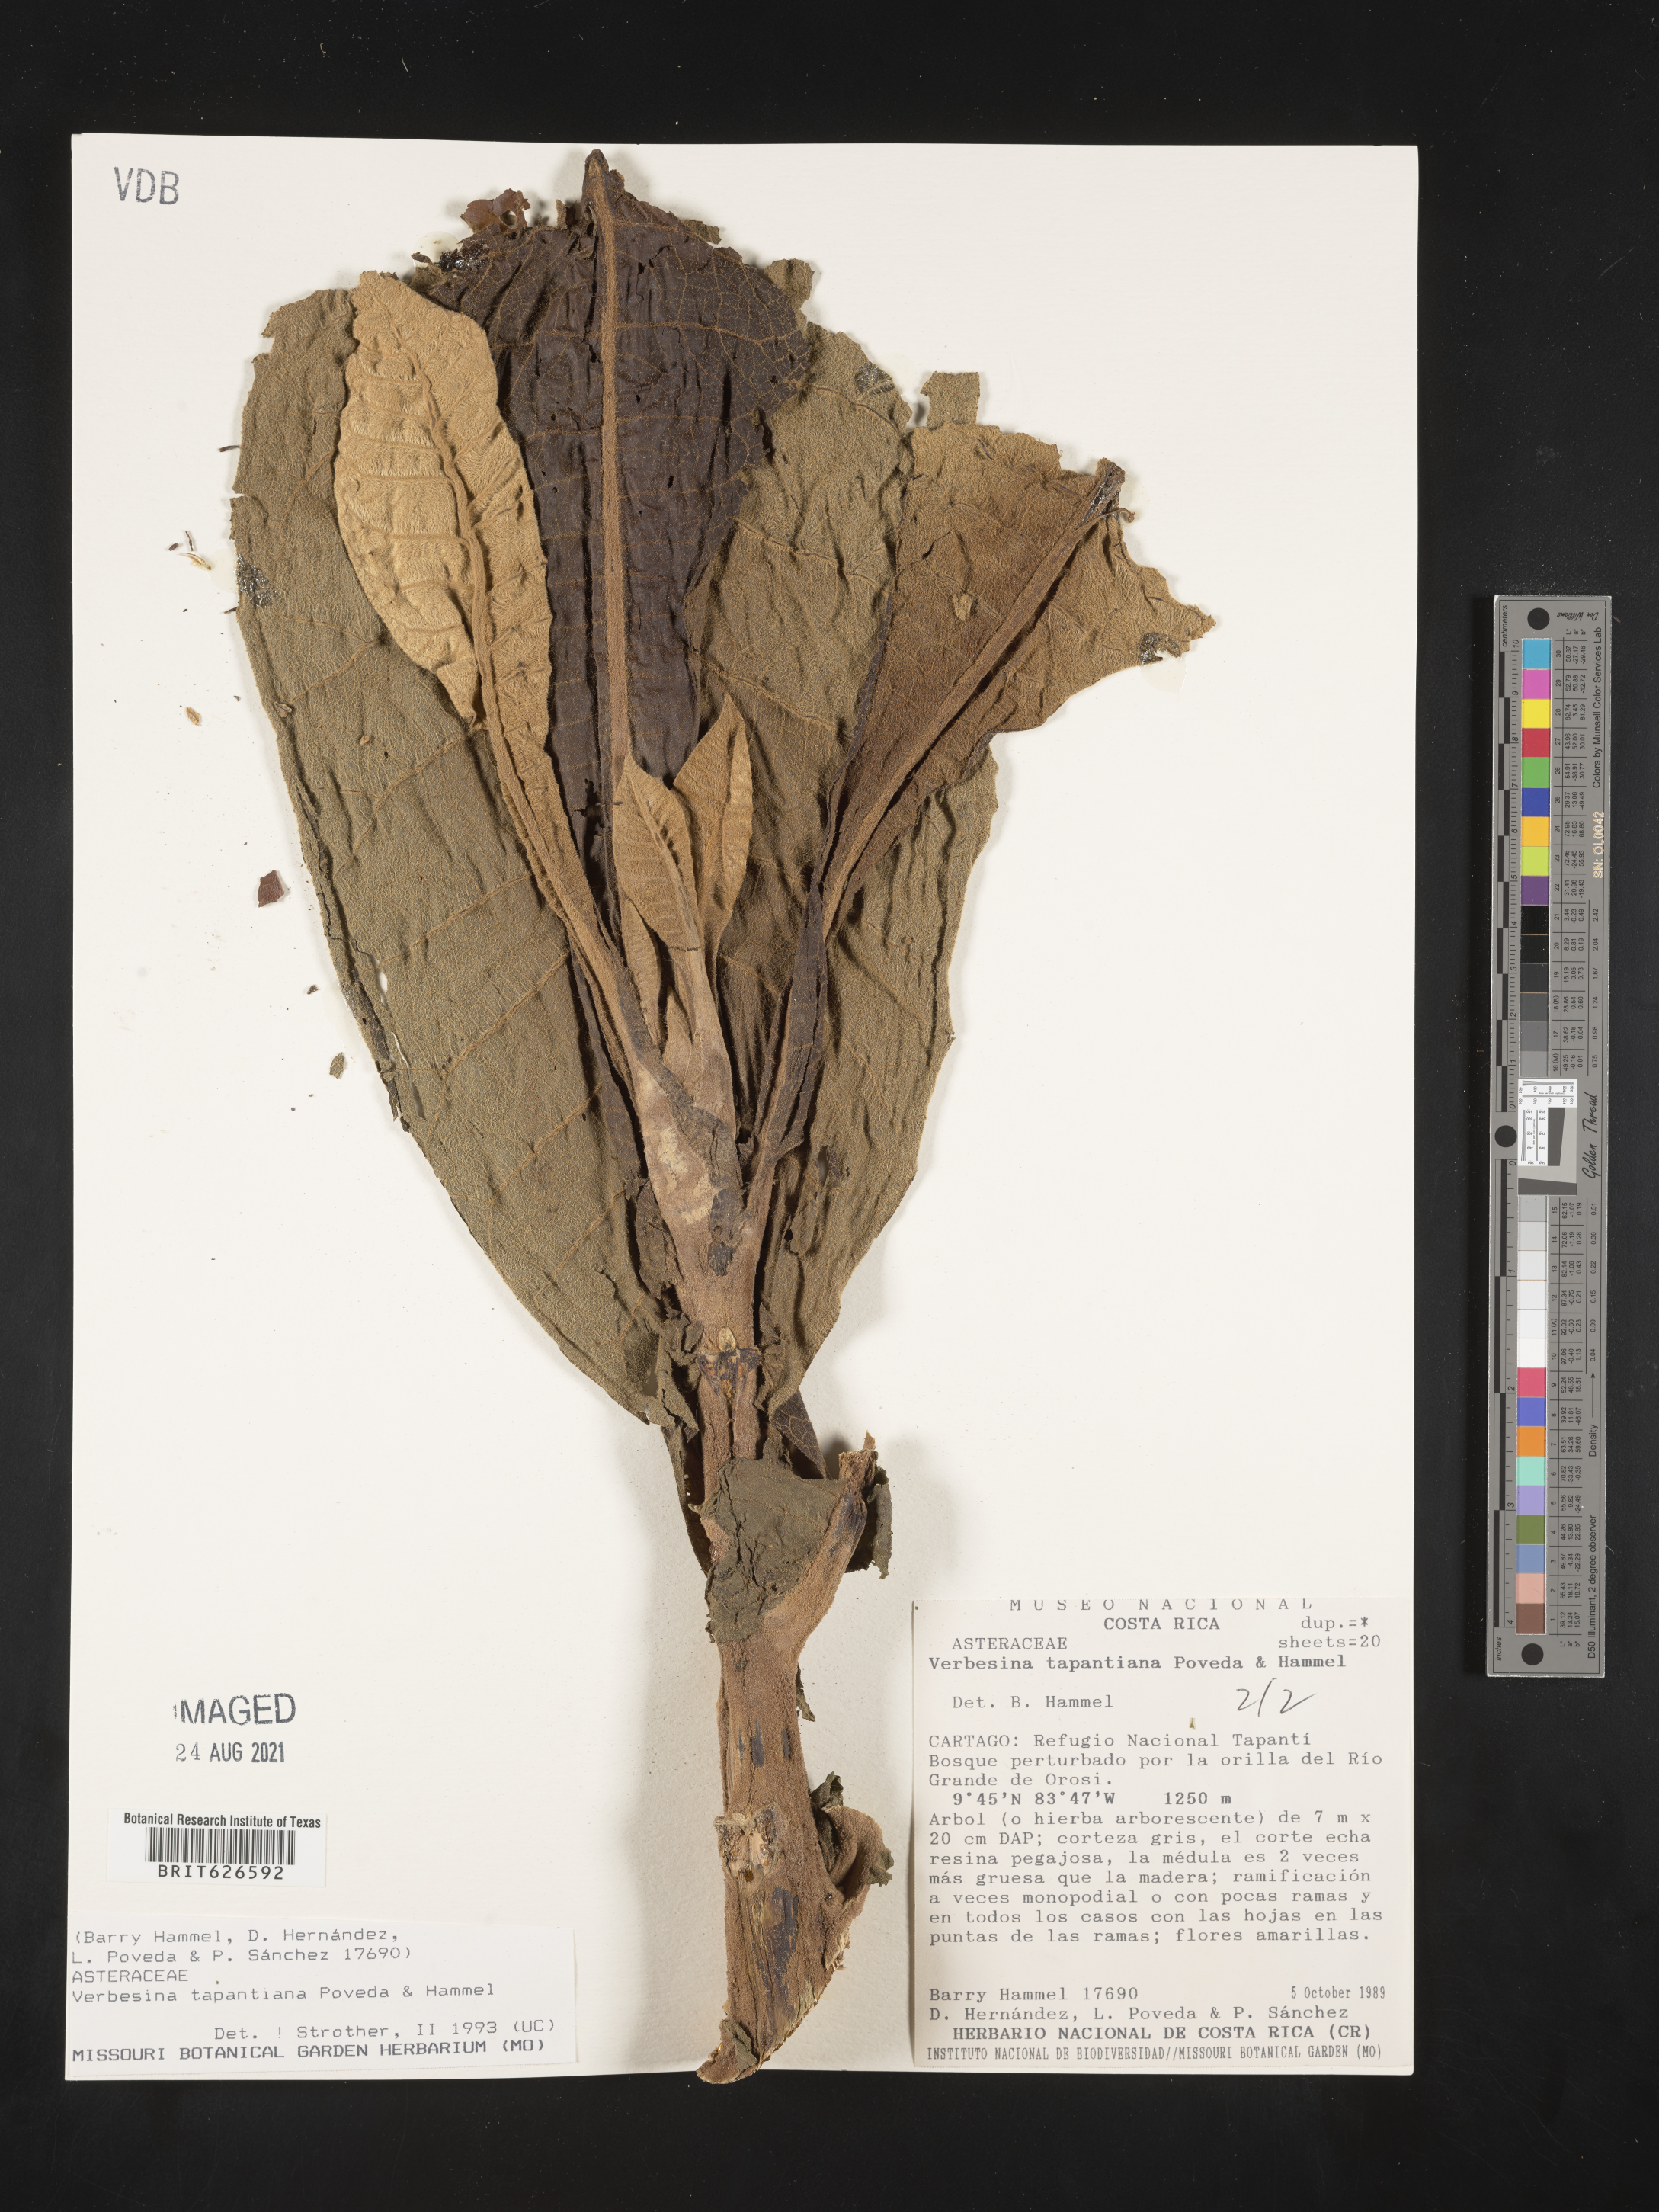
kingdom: Plantae
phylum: Tracheophyta
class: Magnoliopsida
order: Asterales
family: Asteraceae
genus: Verbesina
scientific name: Verbesina tapantiana
